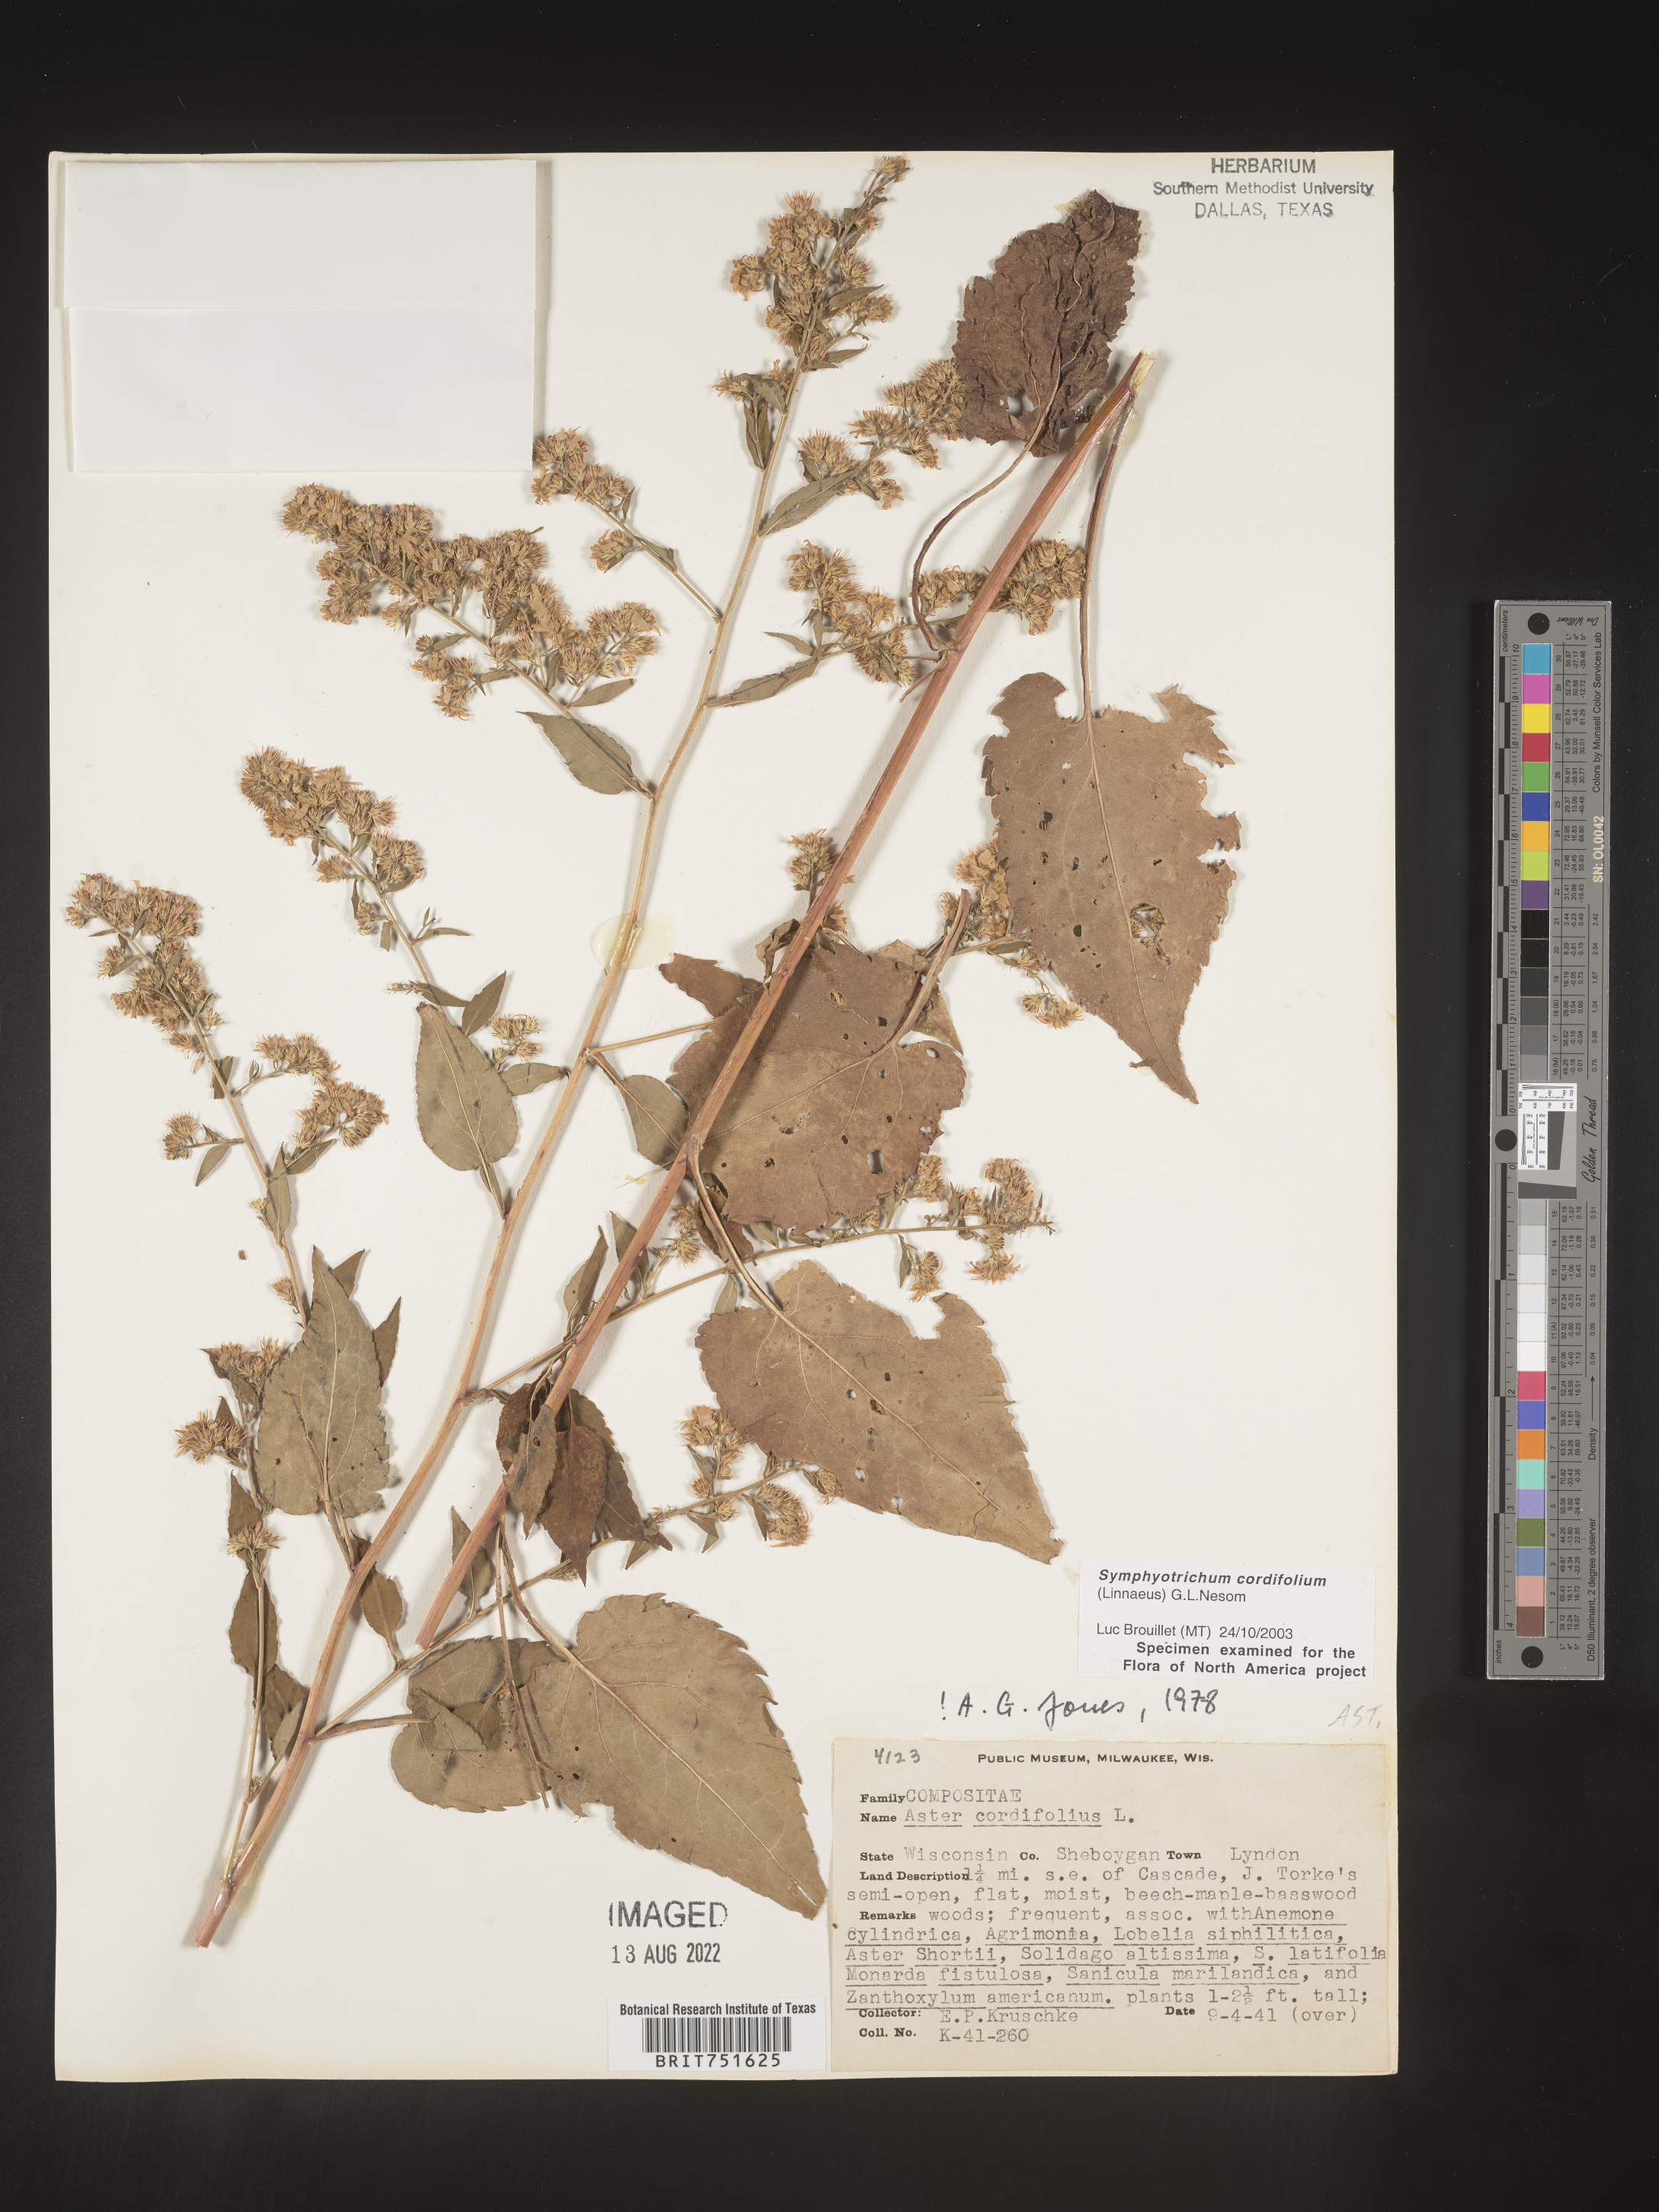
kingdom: Plantae
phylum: Tracheophyta
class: Magnoliopsida
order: Asterales
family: Asteraceae
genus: Symphyotrichum
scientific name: Symphyotrichum cordifolium
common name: Beeweed
